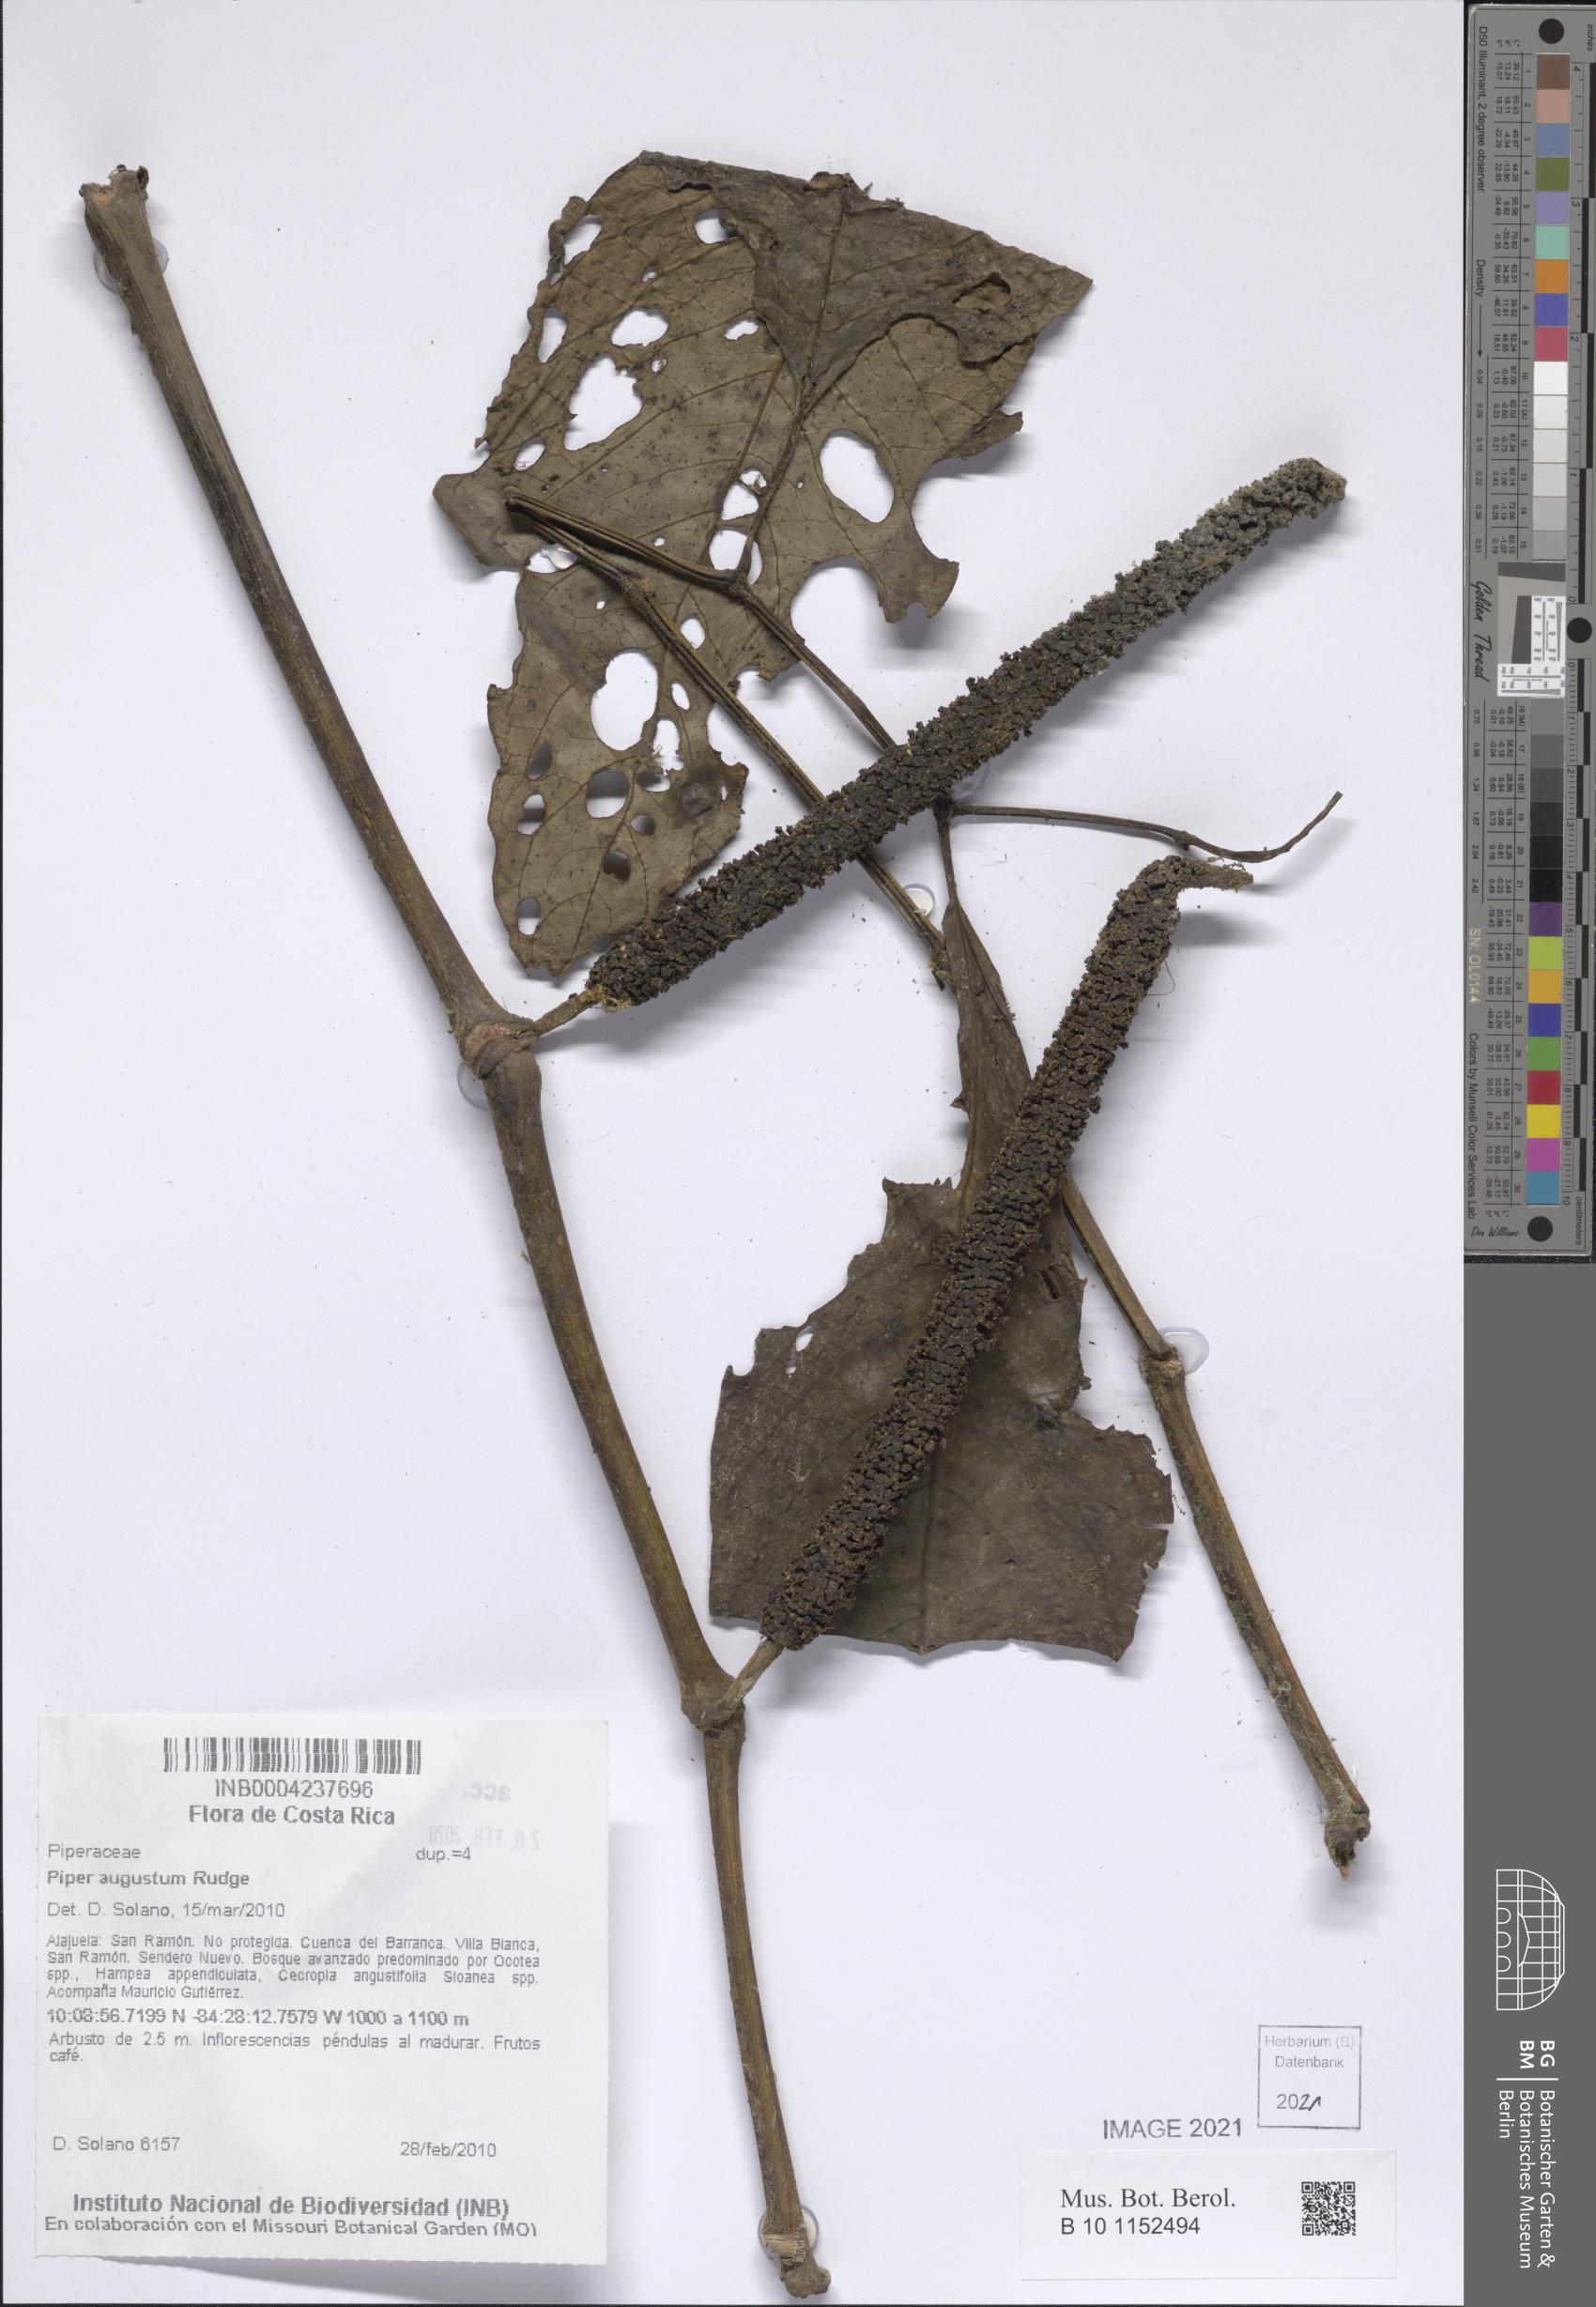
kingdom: Plantae
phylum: Tracheophyta
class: Magnoliopsida
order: Piperales
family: Piperaceae
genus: Piper
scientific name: Piper augustum
